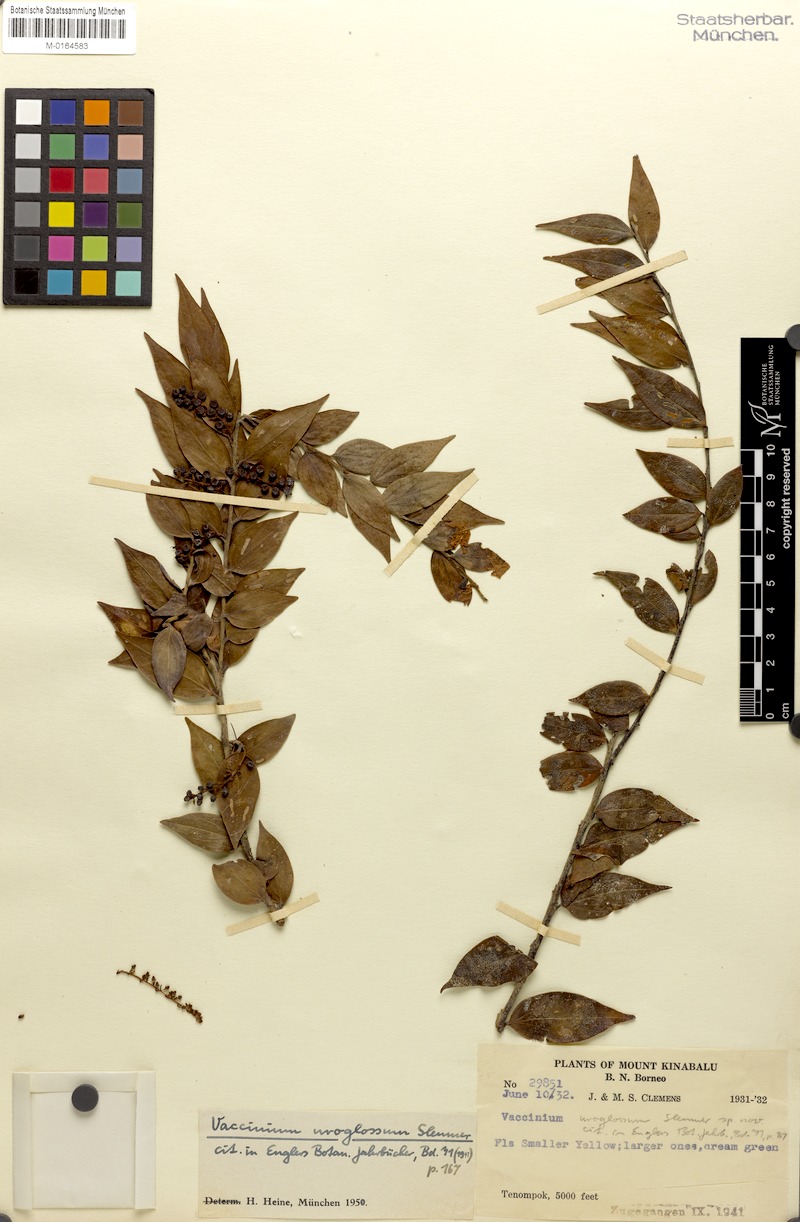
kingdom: Plantae
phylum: Tracheophyta
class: Magnoliopsida
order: Ericales
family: Ericaceae
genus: Rigiolepis
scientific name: Rigiolepis uroglossa
